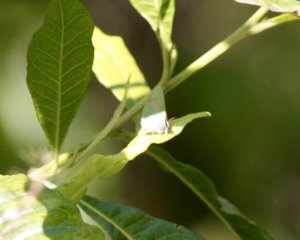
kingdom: Animalia
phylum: Arthropoda
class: Insecta
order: Lepidoptera
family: Lycaenidae
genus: Udara
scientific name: Udara blackburni
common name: Hawaiian Blue
